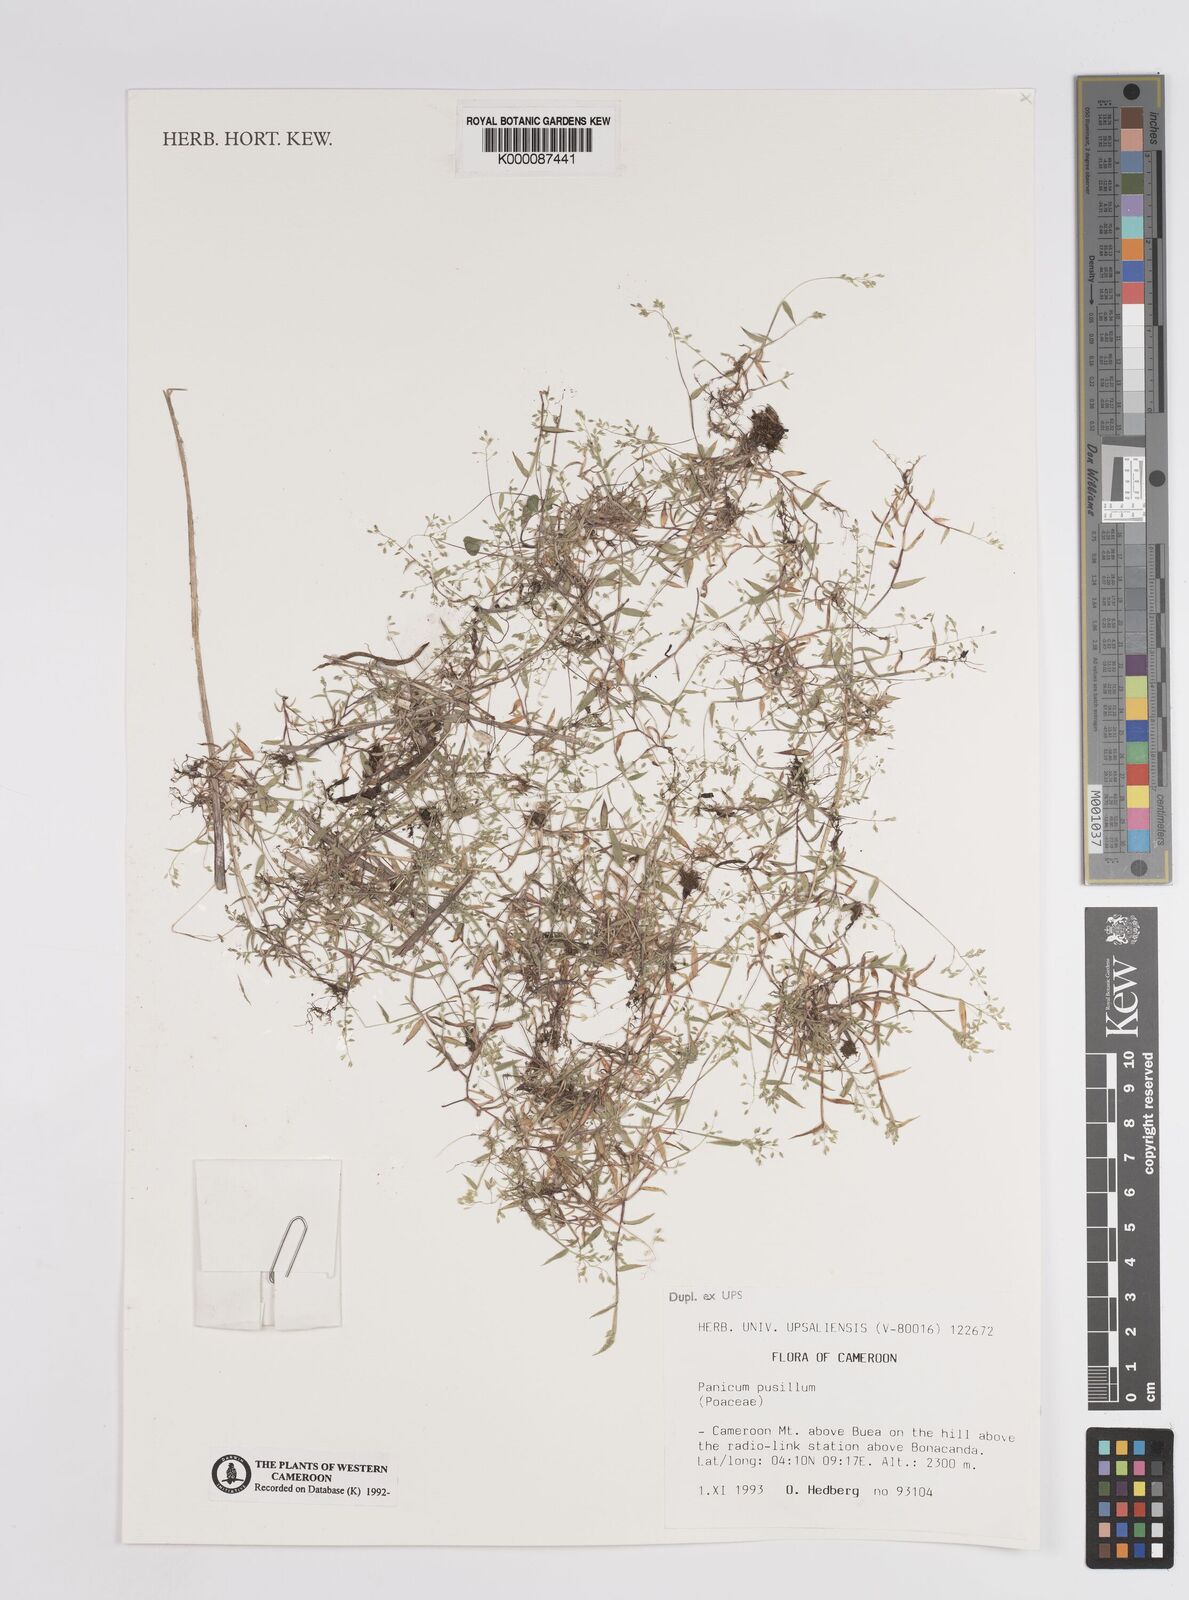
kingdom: Plantae
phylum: Tracheophyta
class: Liliopsida
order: Poales
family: Poaceae
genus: Panicum
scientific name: Panicum pusillum
